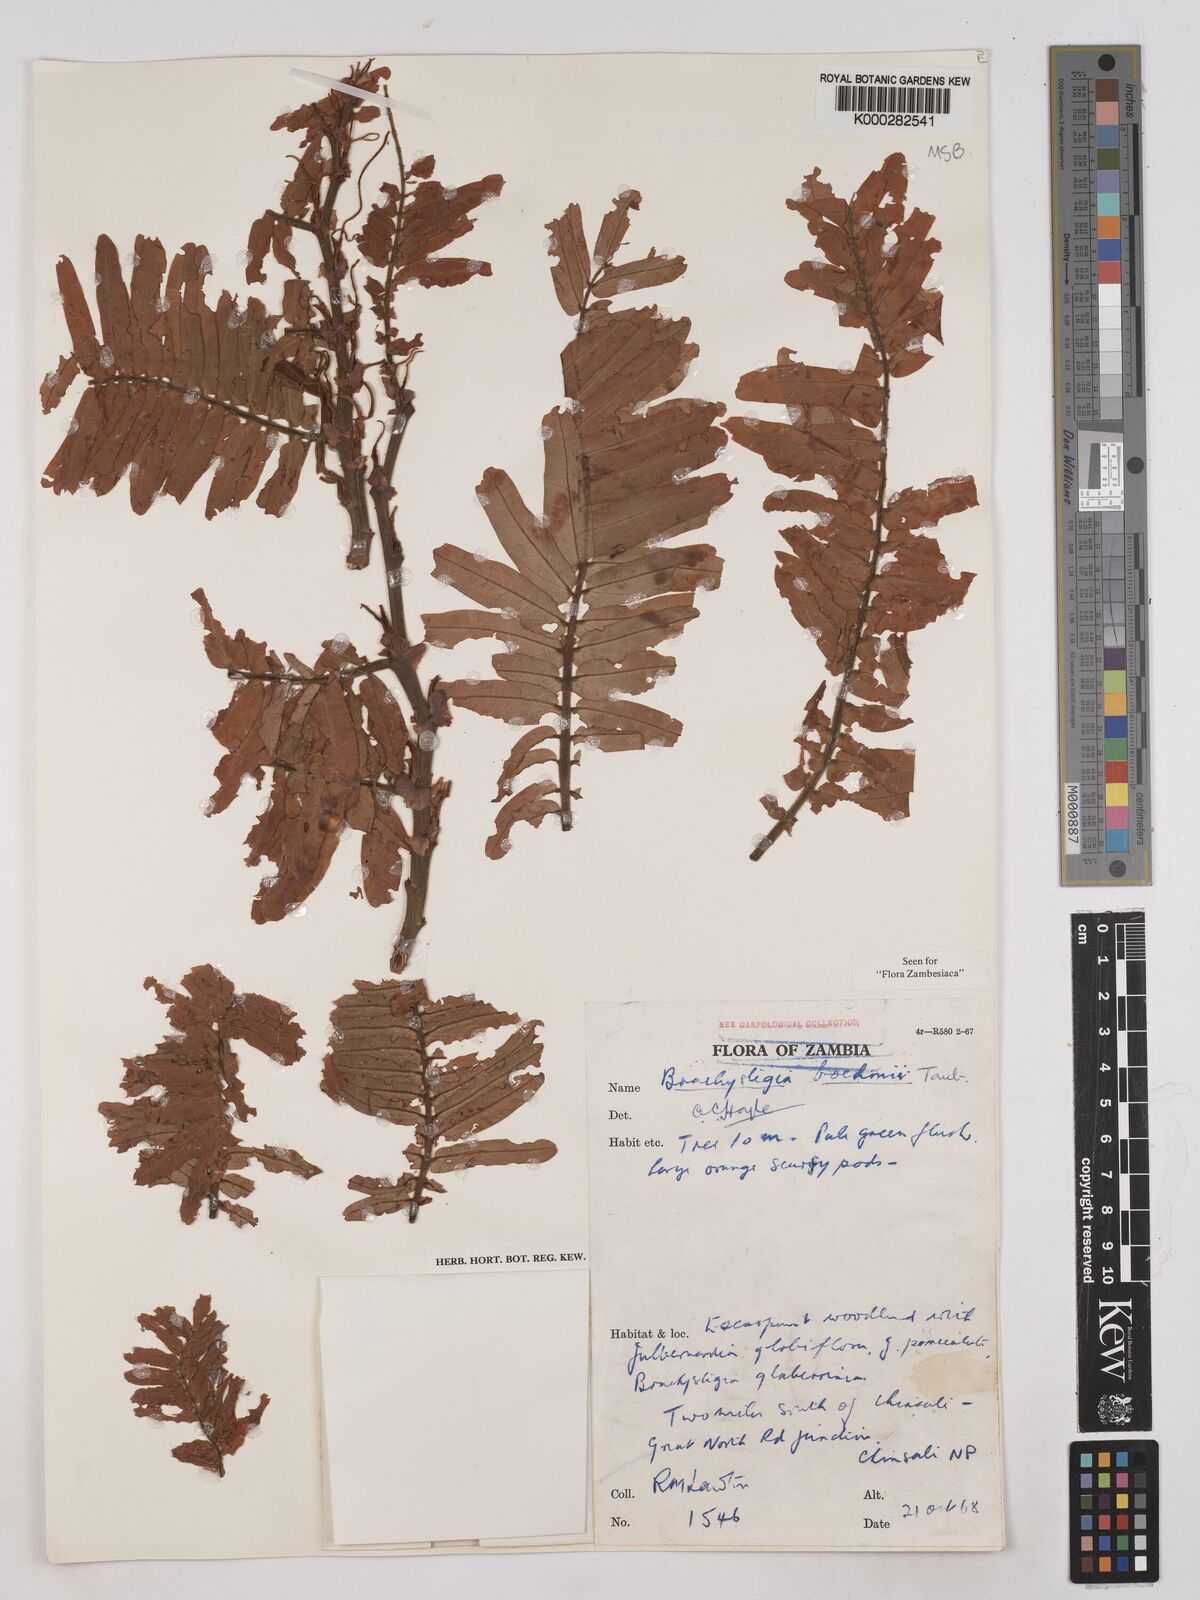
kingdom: Plantae
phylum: Tracheophyta
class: Magnoliopsida
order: Fabales
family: Fabaceae
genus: Brachystegia
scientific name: Brachystegia boehmii
